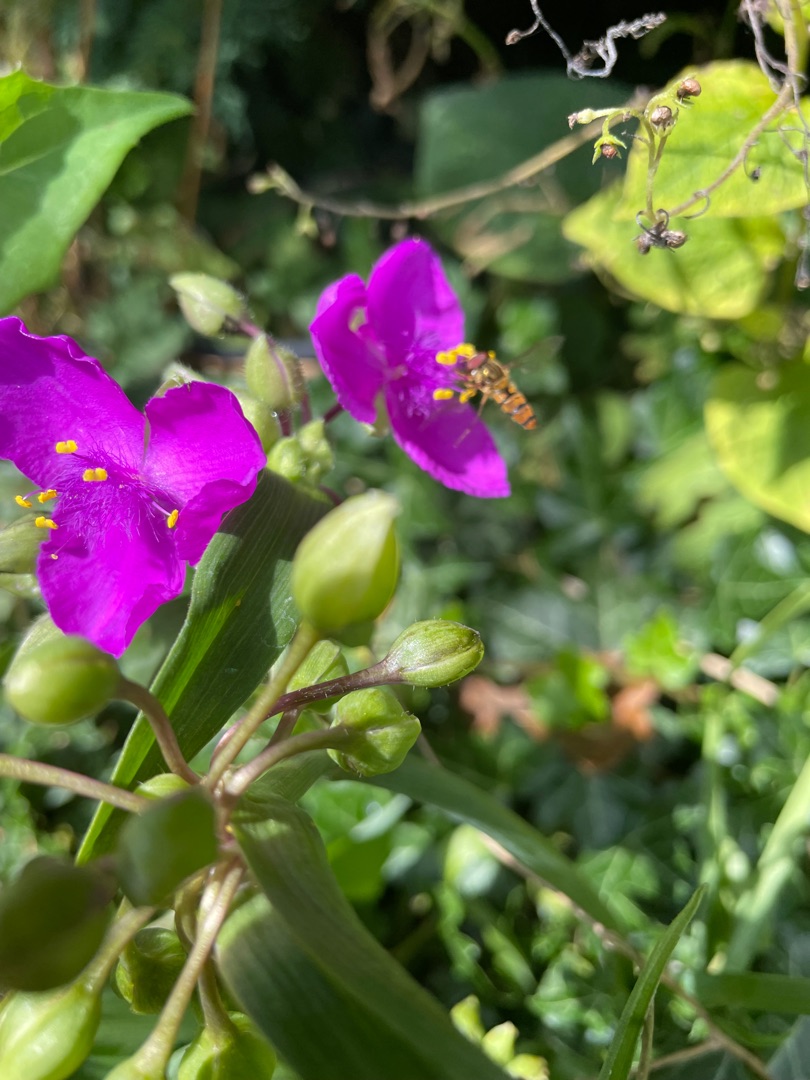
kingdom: Plantae
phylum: Tracheophyta
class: Liliopsida
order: Commelinales
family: Commelinaceae
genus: Tradescantia
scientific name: Tradescantia virginiana
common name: Blomsterjøde
